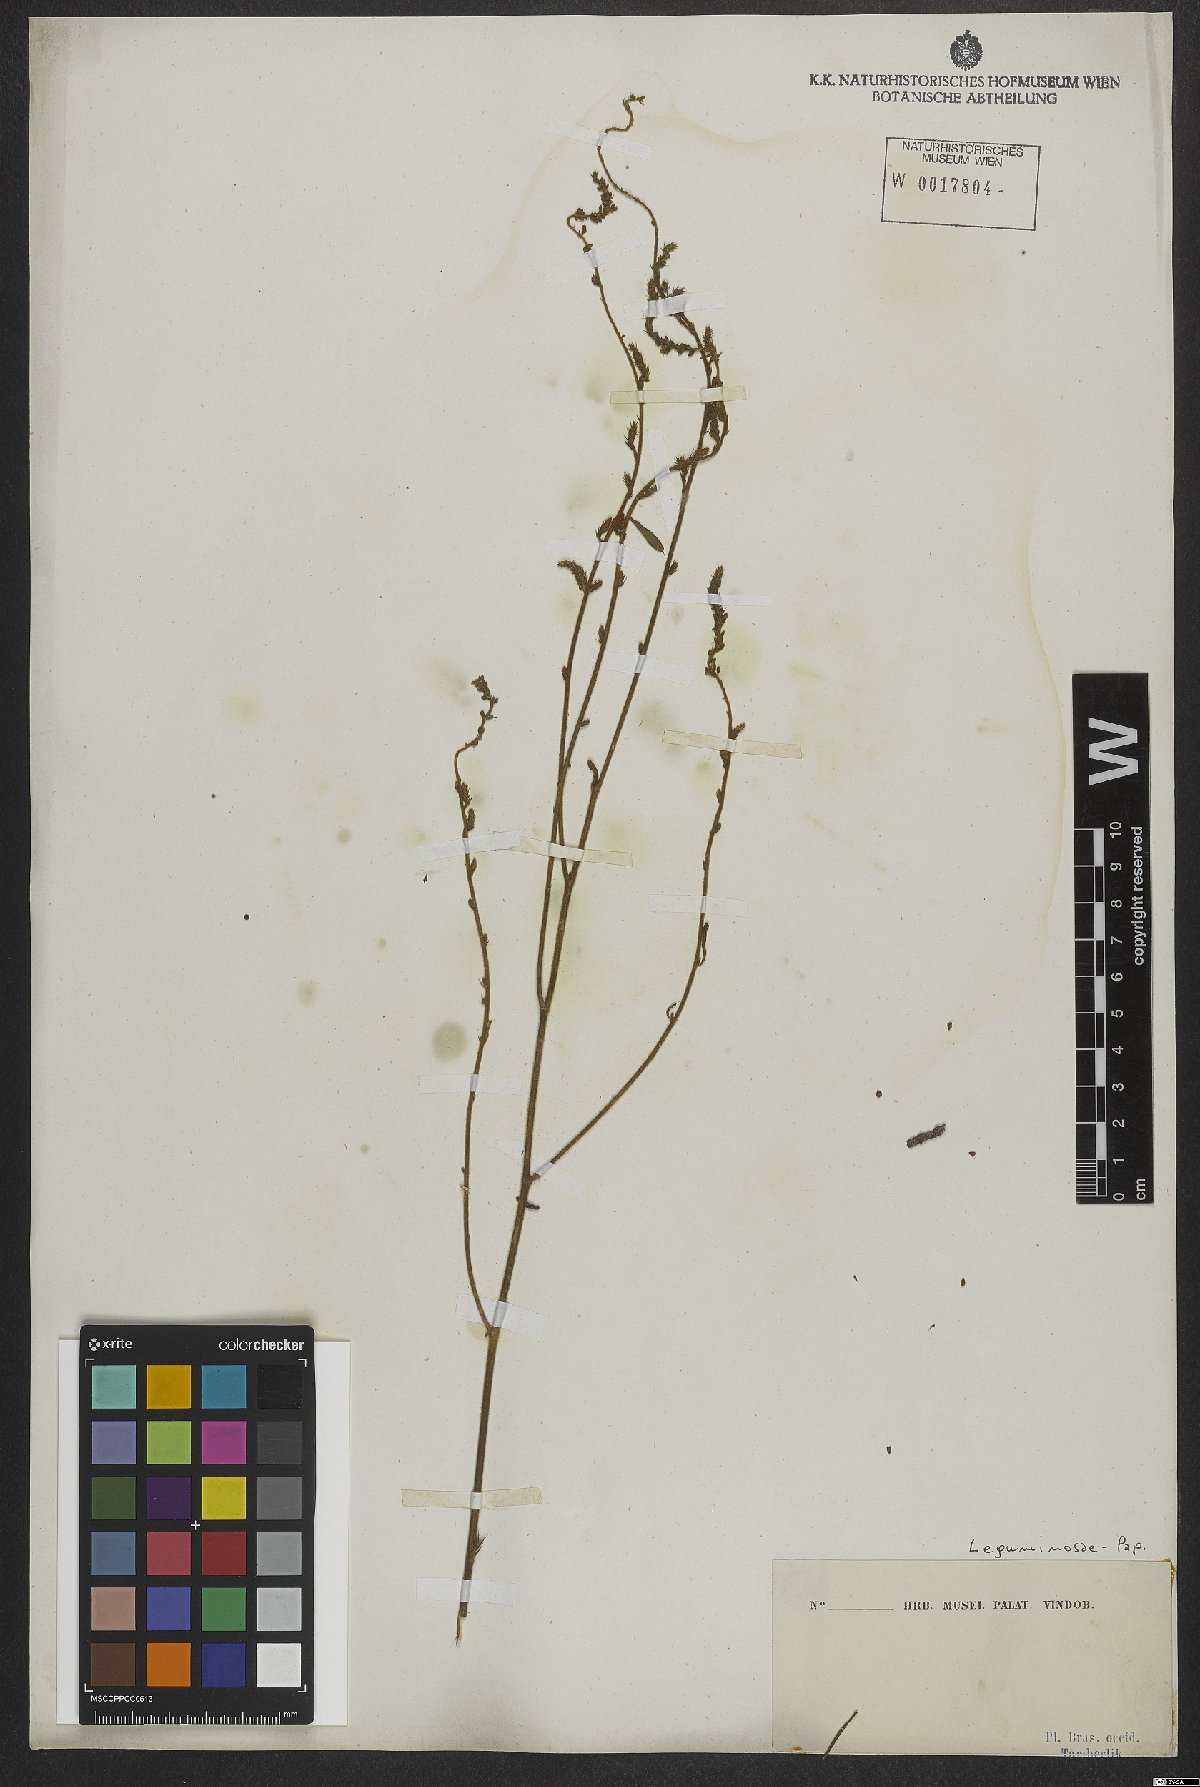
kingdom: Plantae
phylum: Tracheophyta
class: Magnoliopsida
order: Fabales
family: Fabaceae
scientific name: Fabaceae
